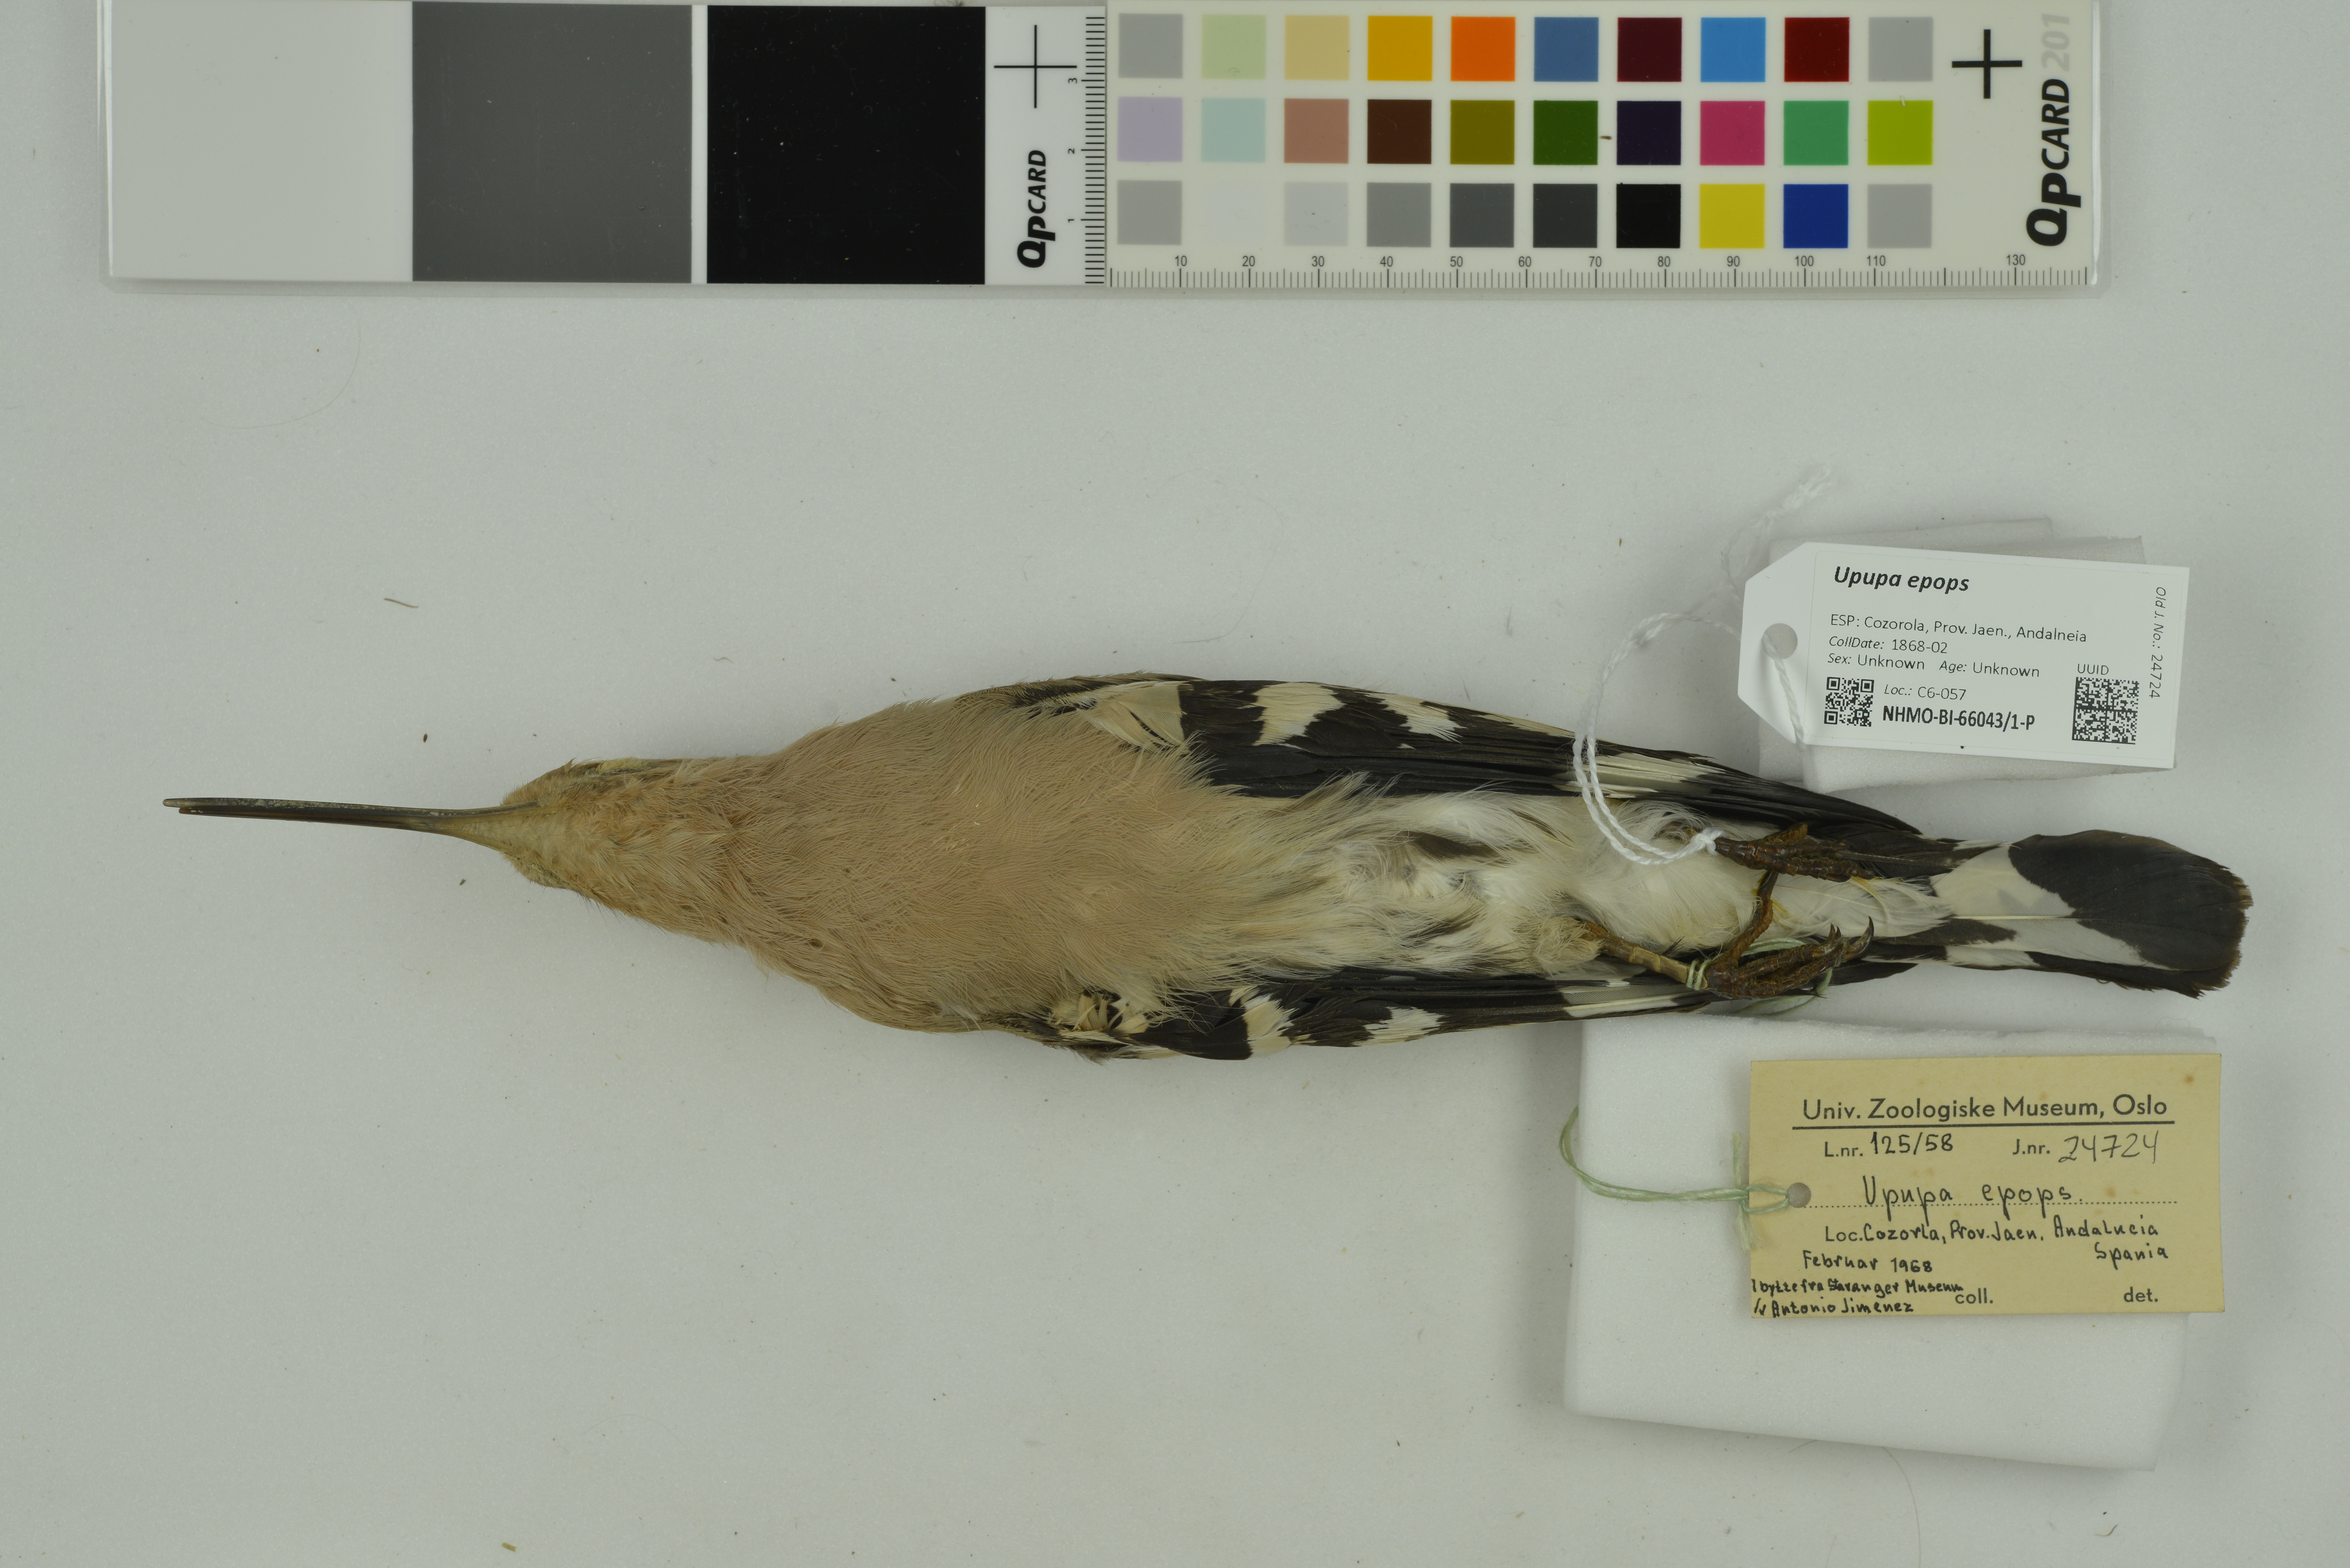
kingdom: Animalia
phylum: Chordata
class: Aves
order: Bucerotiformes
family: Upupidae
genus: Upupa
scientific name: Upupa epops
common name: Eurasian hoopoe
